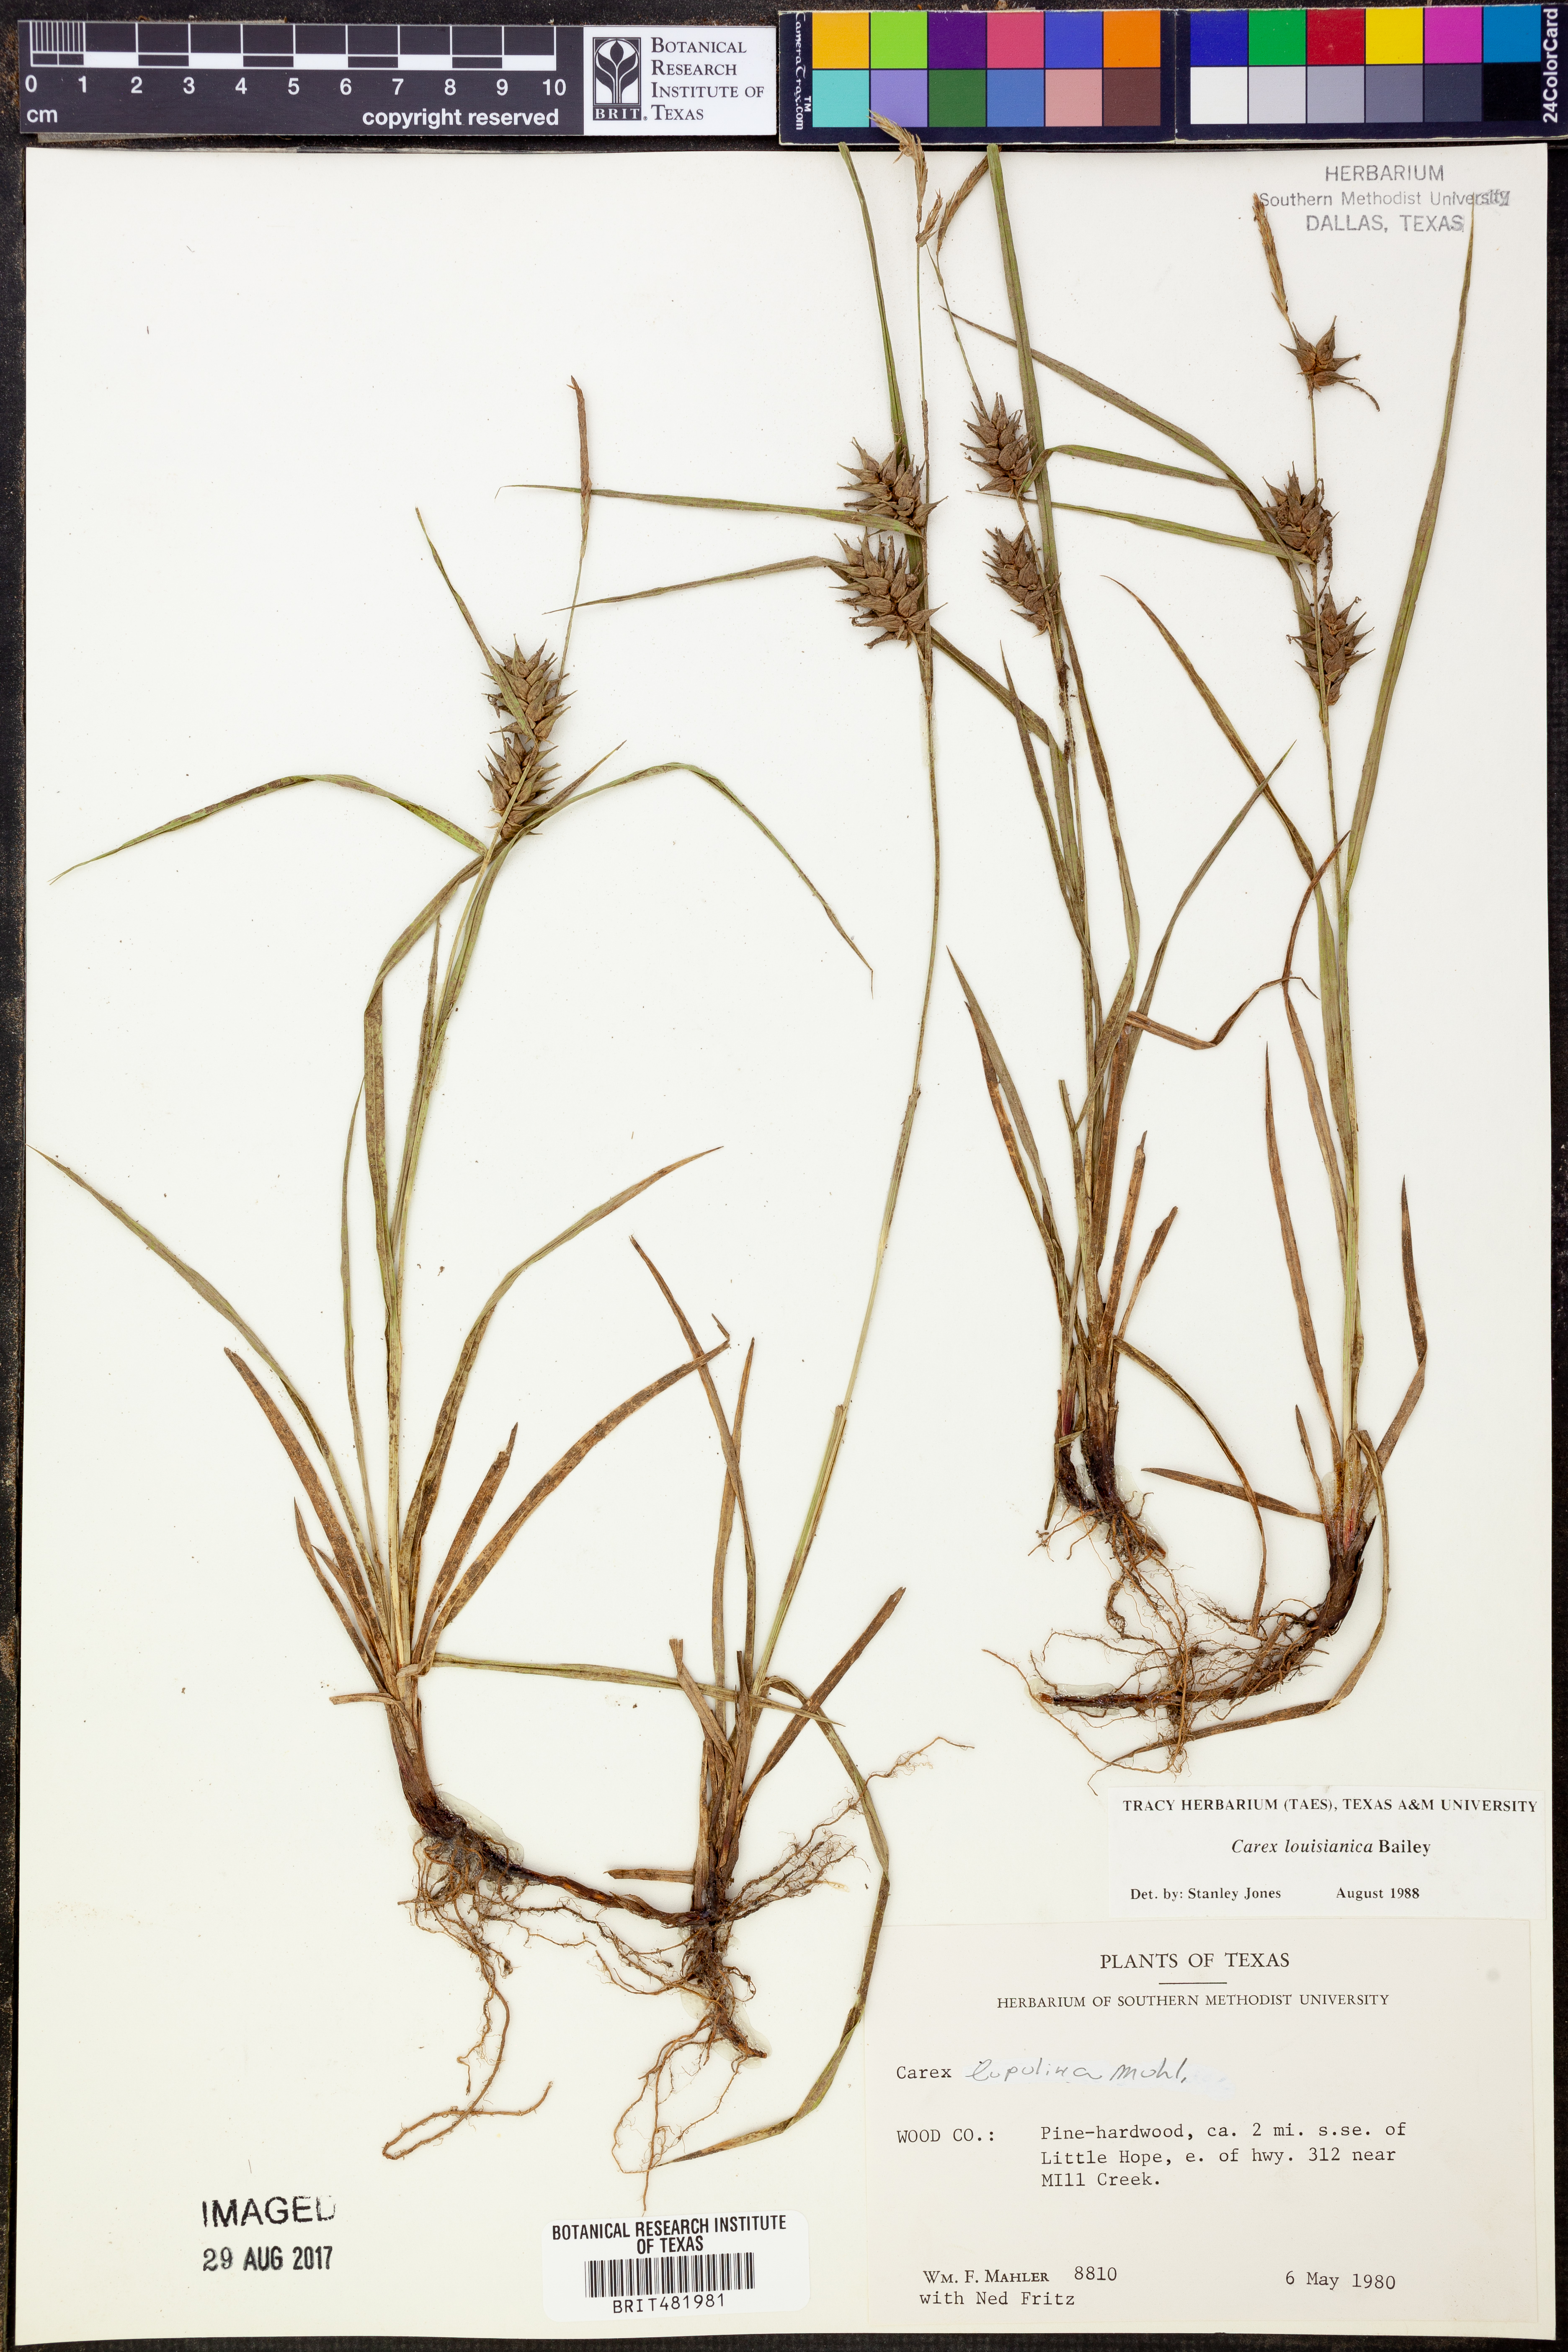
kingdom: Plantae
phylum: Tracheophyta
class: Liliopsida
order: Poales
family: Cyperaceae
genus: Carex
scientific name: Carex louisianica
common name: Louisiana sedge
